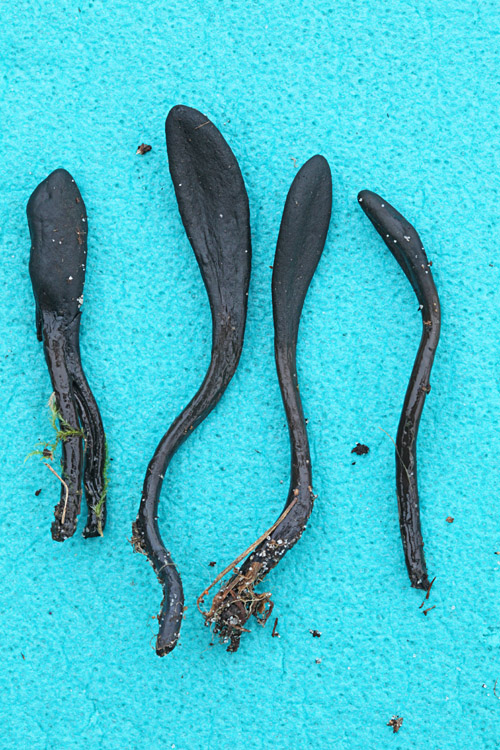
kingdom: Fungi
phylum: Ascomycota
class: Geoglossomycetes
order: Geoglossales
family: Geoglossaceae
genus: Glutinoglossum
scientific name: Glutinoglossum glutinosum
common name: slimet jordtunge
